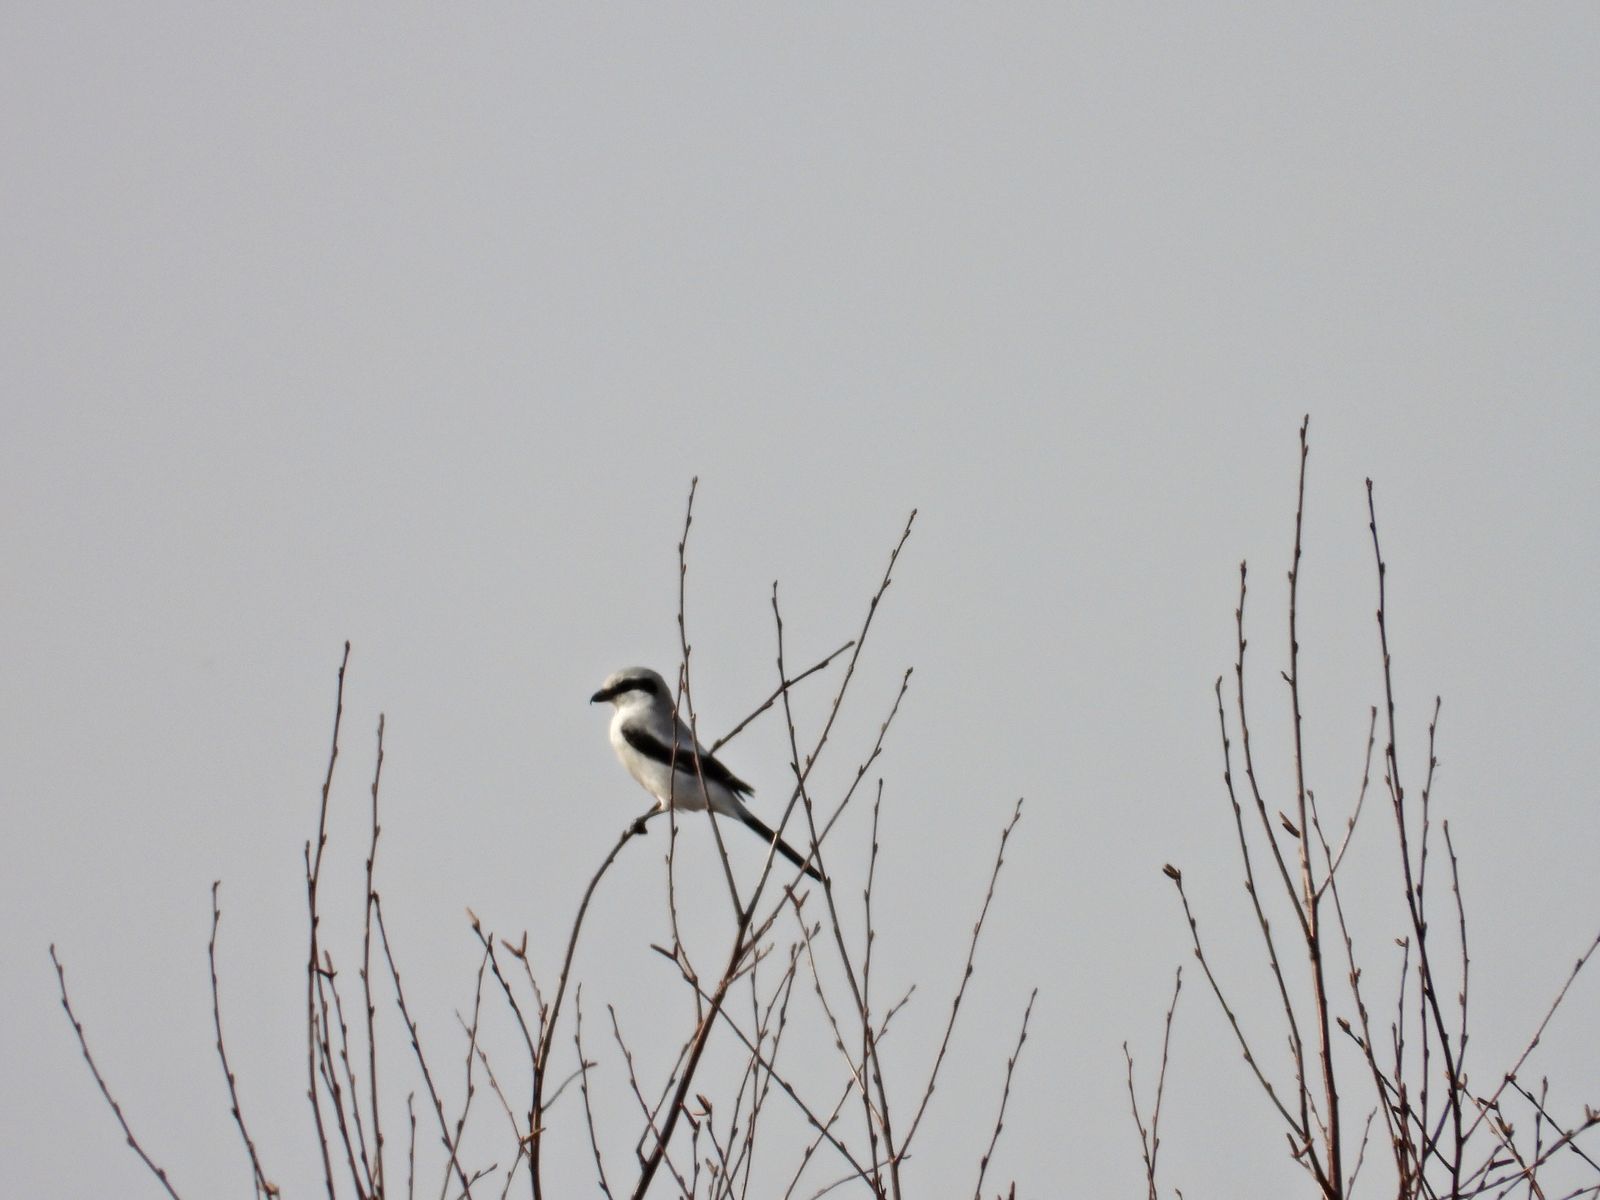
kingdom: Animalia
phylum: Chordata
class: Aves
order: Passeriformes
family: Laniidae
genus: Lanius
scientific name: Lanius excubitor
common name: Great grey shrike
